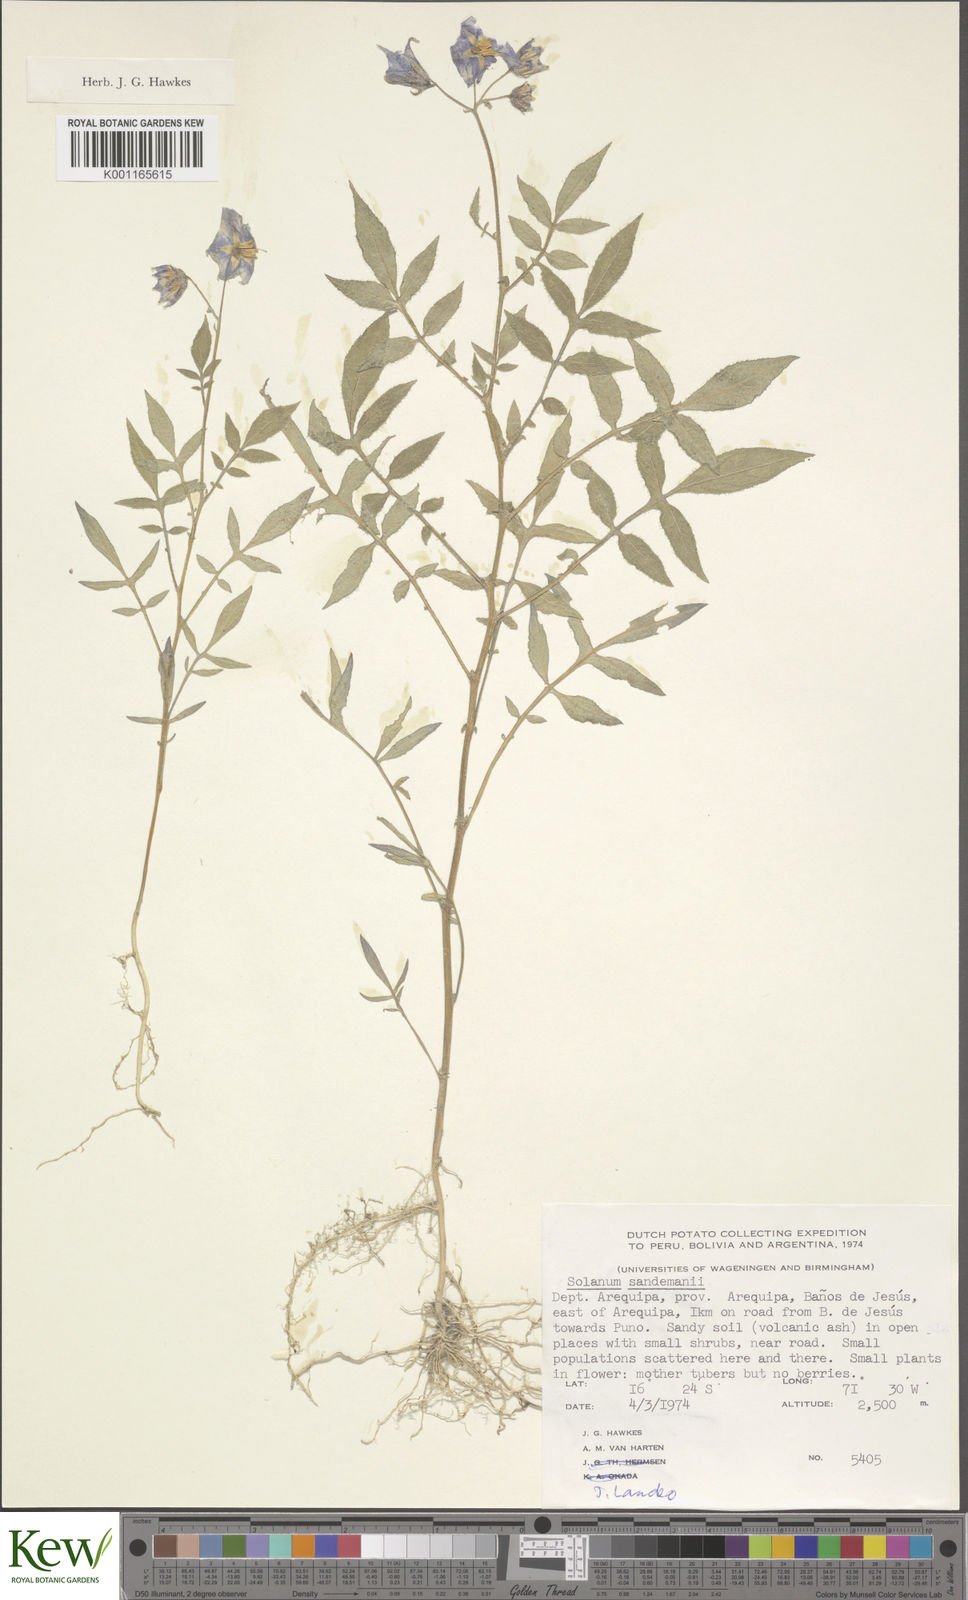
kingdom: Plantae
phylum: Tracheophyta
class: Magnoliopsida
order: Solanales
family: Solanaceae
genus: Solanum
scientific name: Solanum medians
